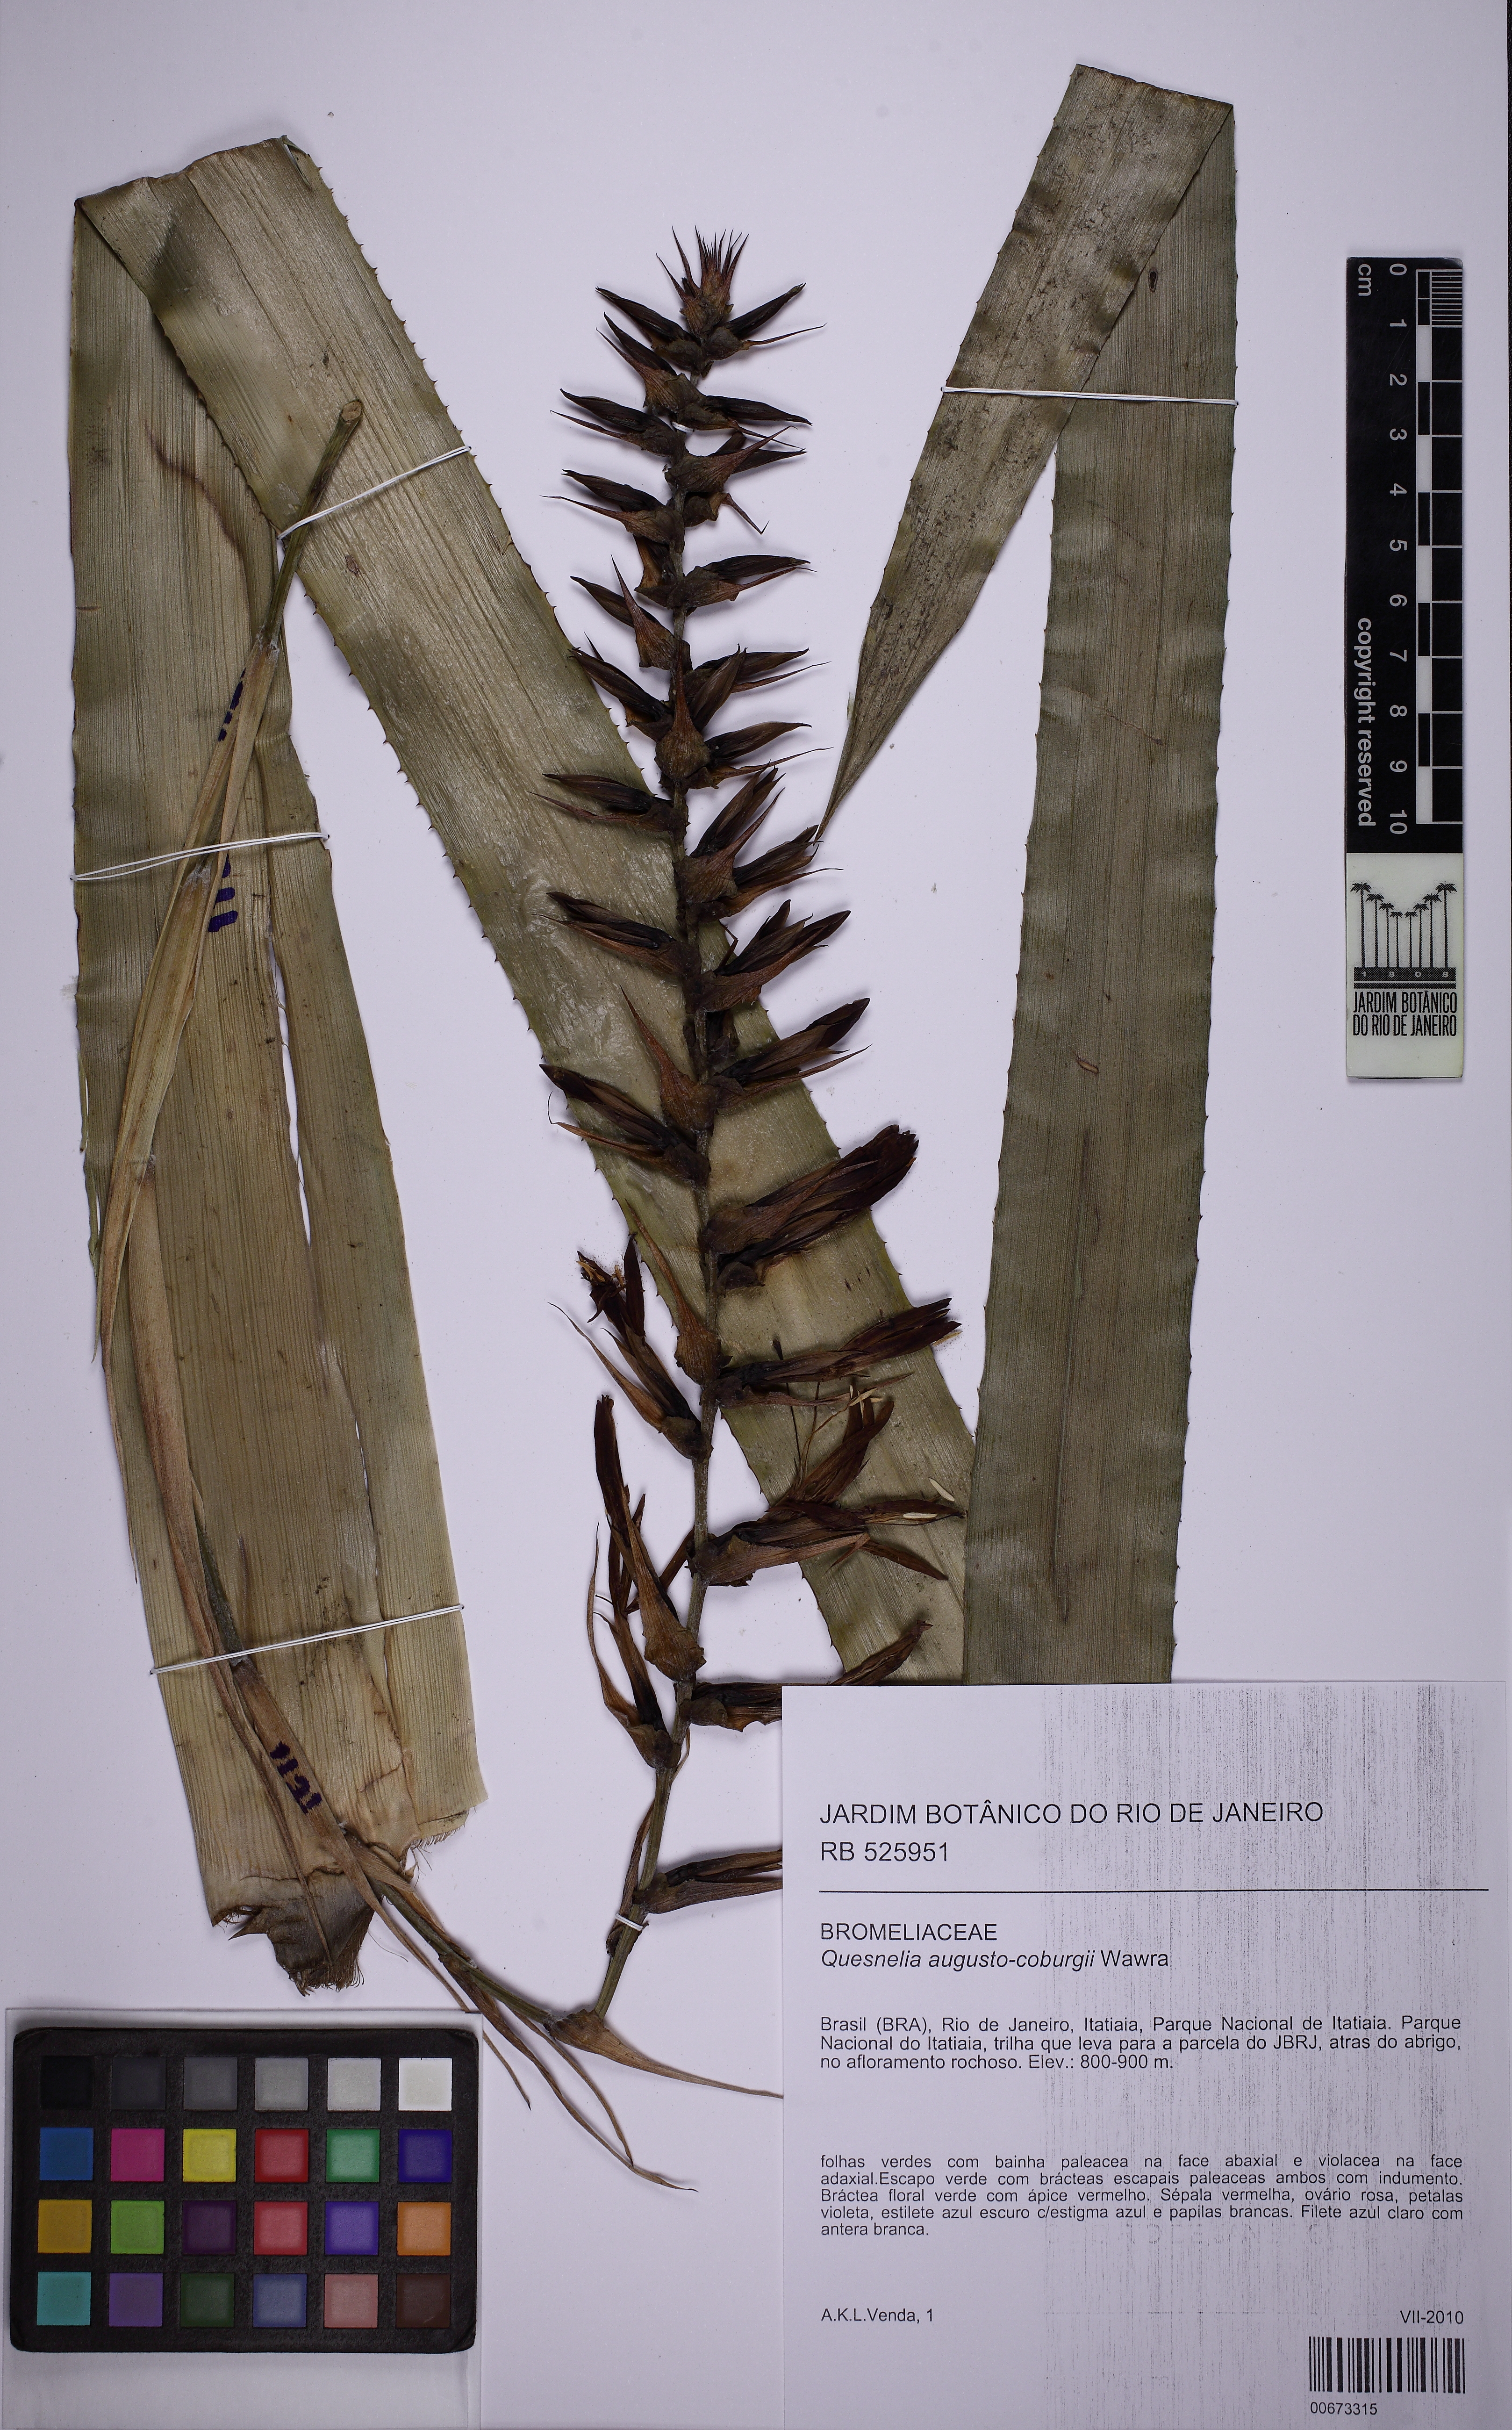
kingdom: Plantae
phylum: Tracheophyta
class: Liliopsida
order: Poales
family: Bromeliaceae
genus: Quesnelia
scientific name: Quesnelia augustocoburgi
